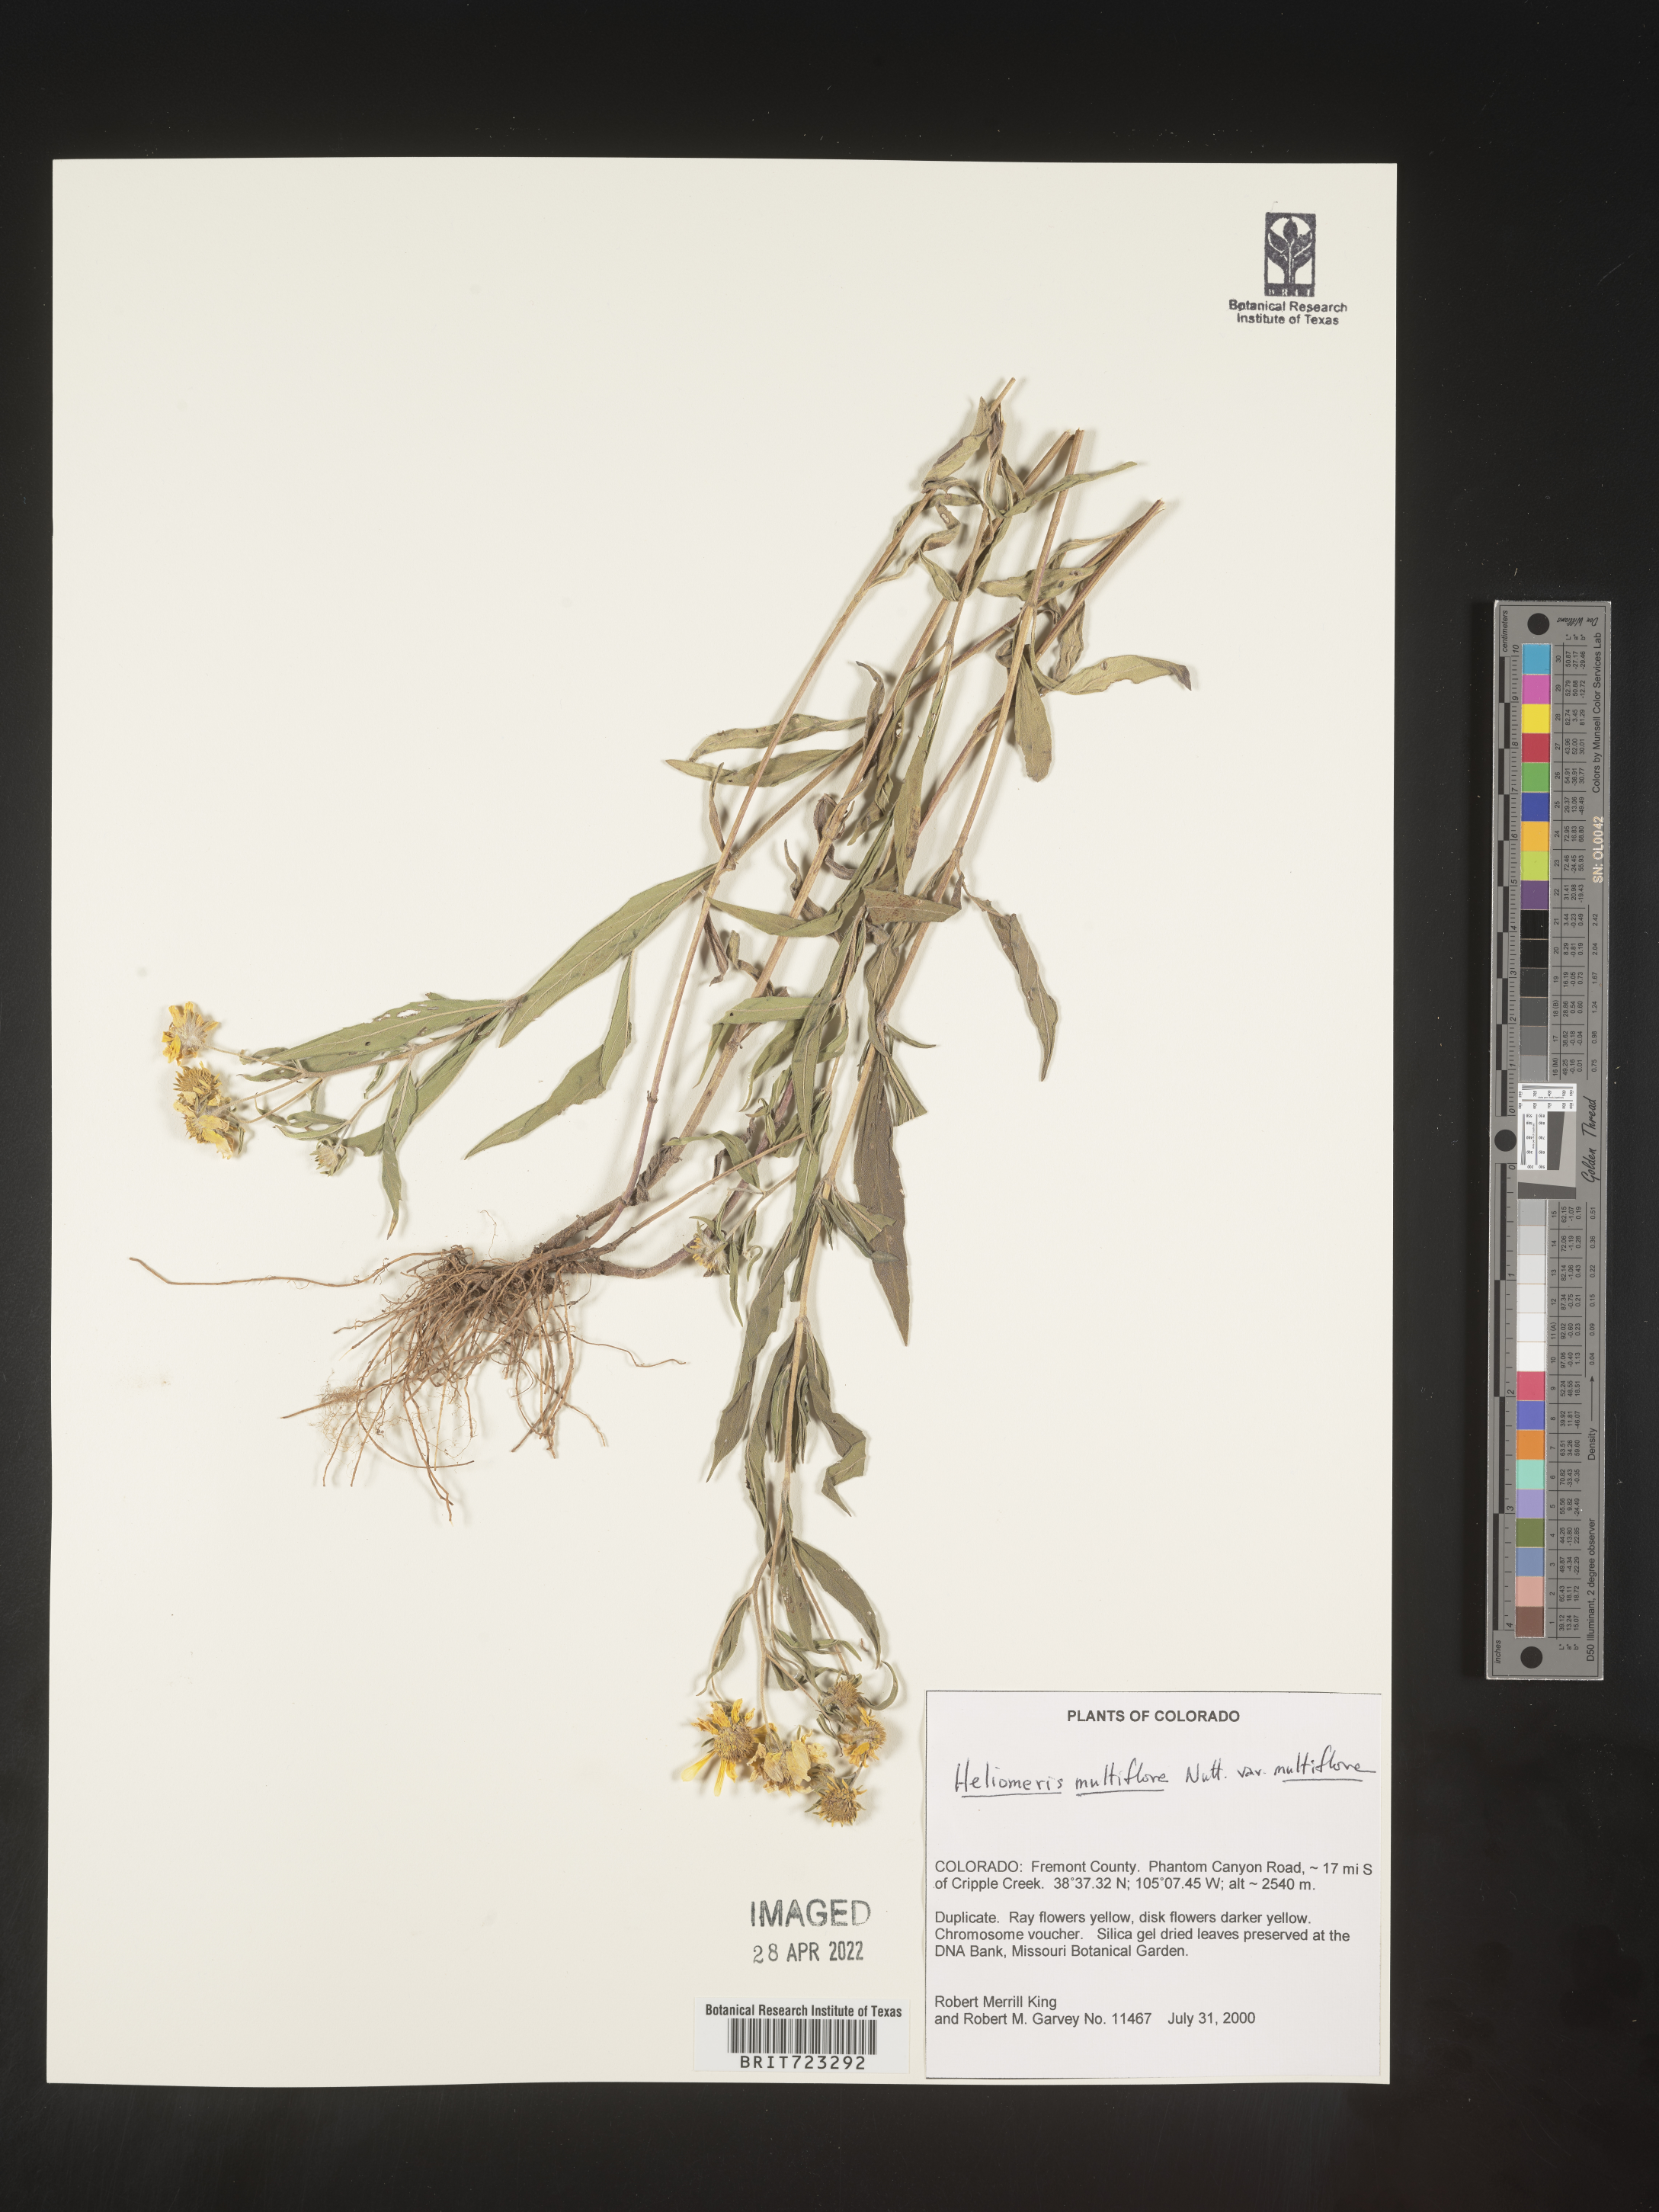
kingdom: Plantae
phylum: Tracheophyta
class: Magnoliopsida
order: Asterales
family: Asteraceae
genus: Heliomeris
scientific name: Heliomeris multiflora
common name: Showy goldeneye
